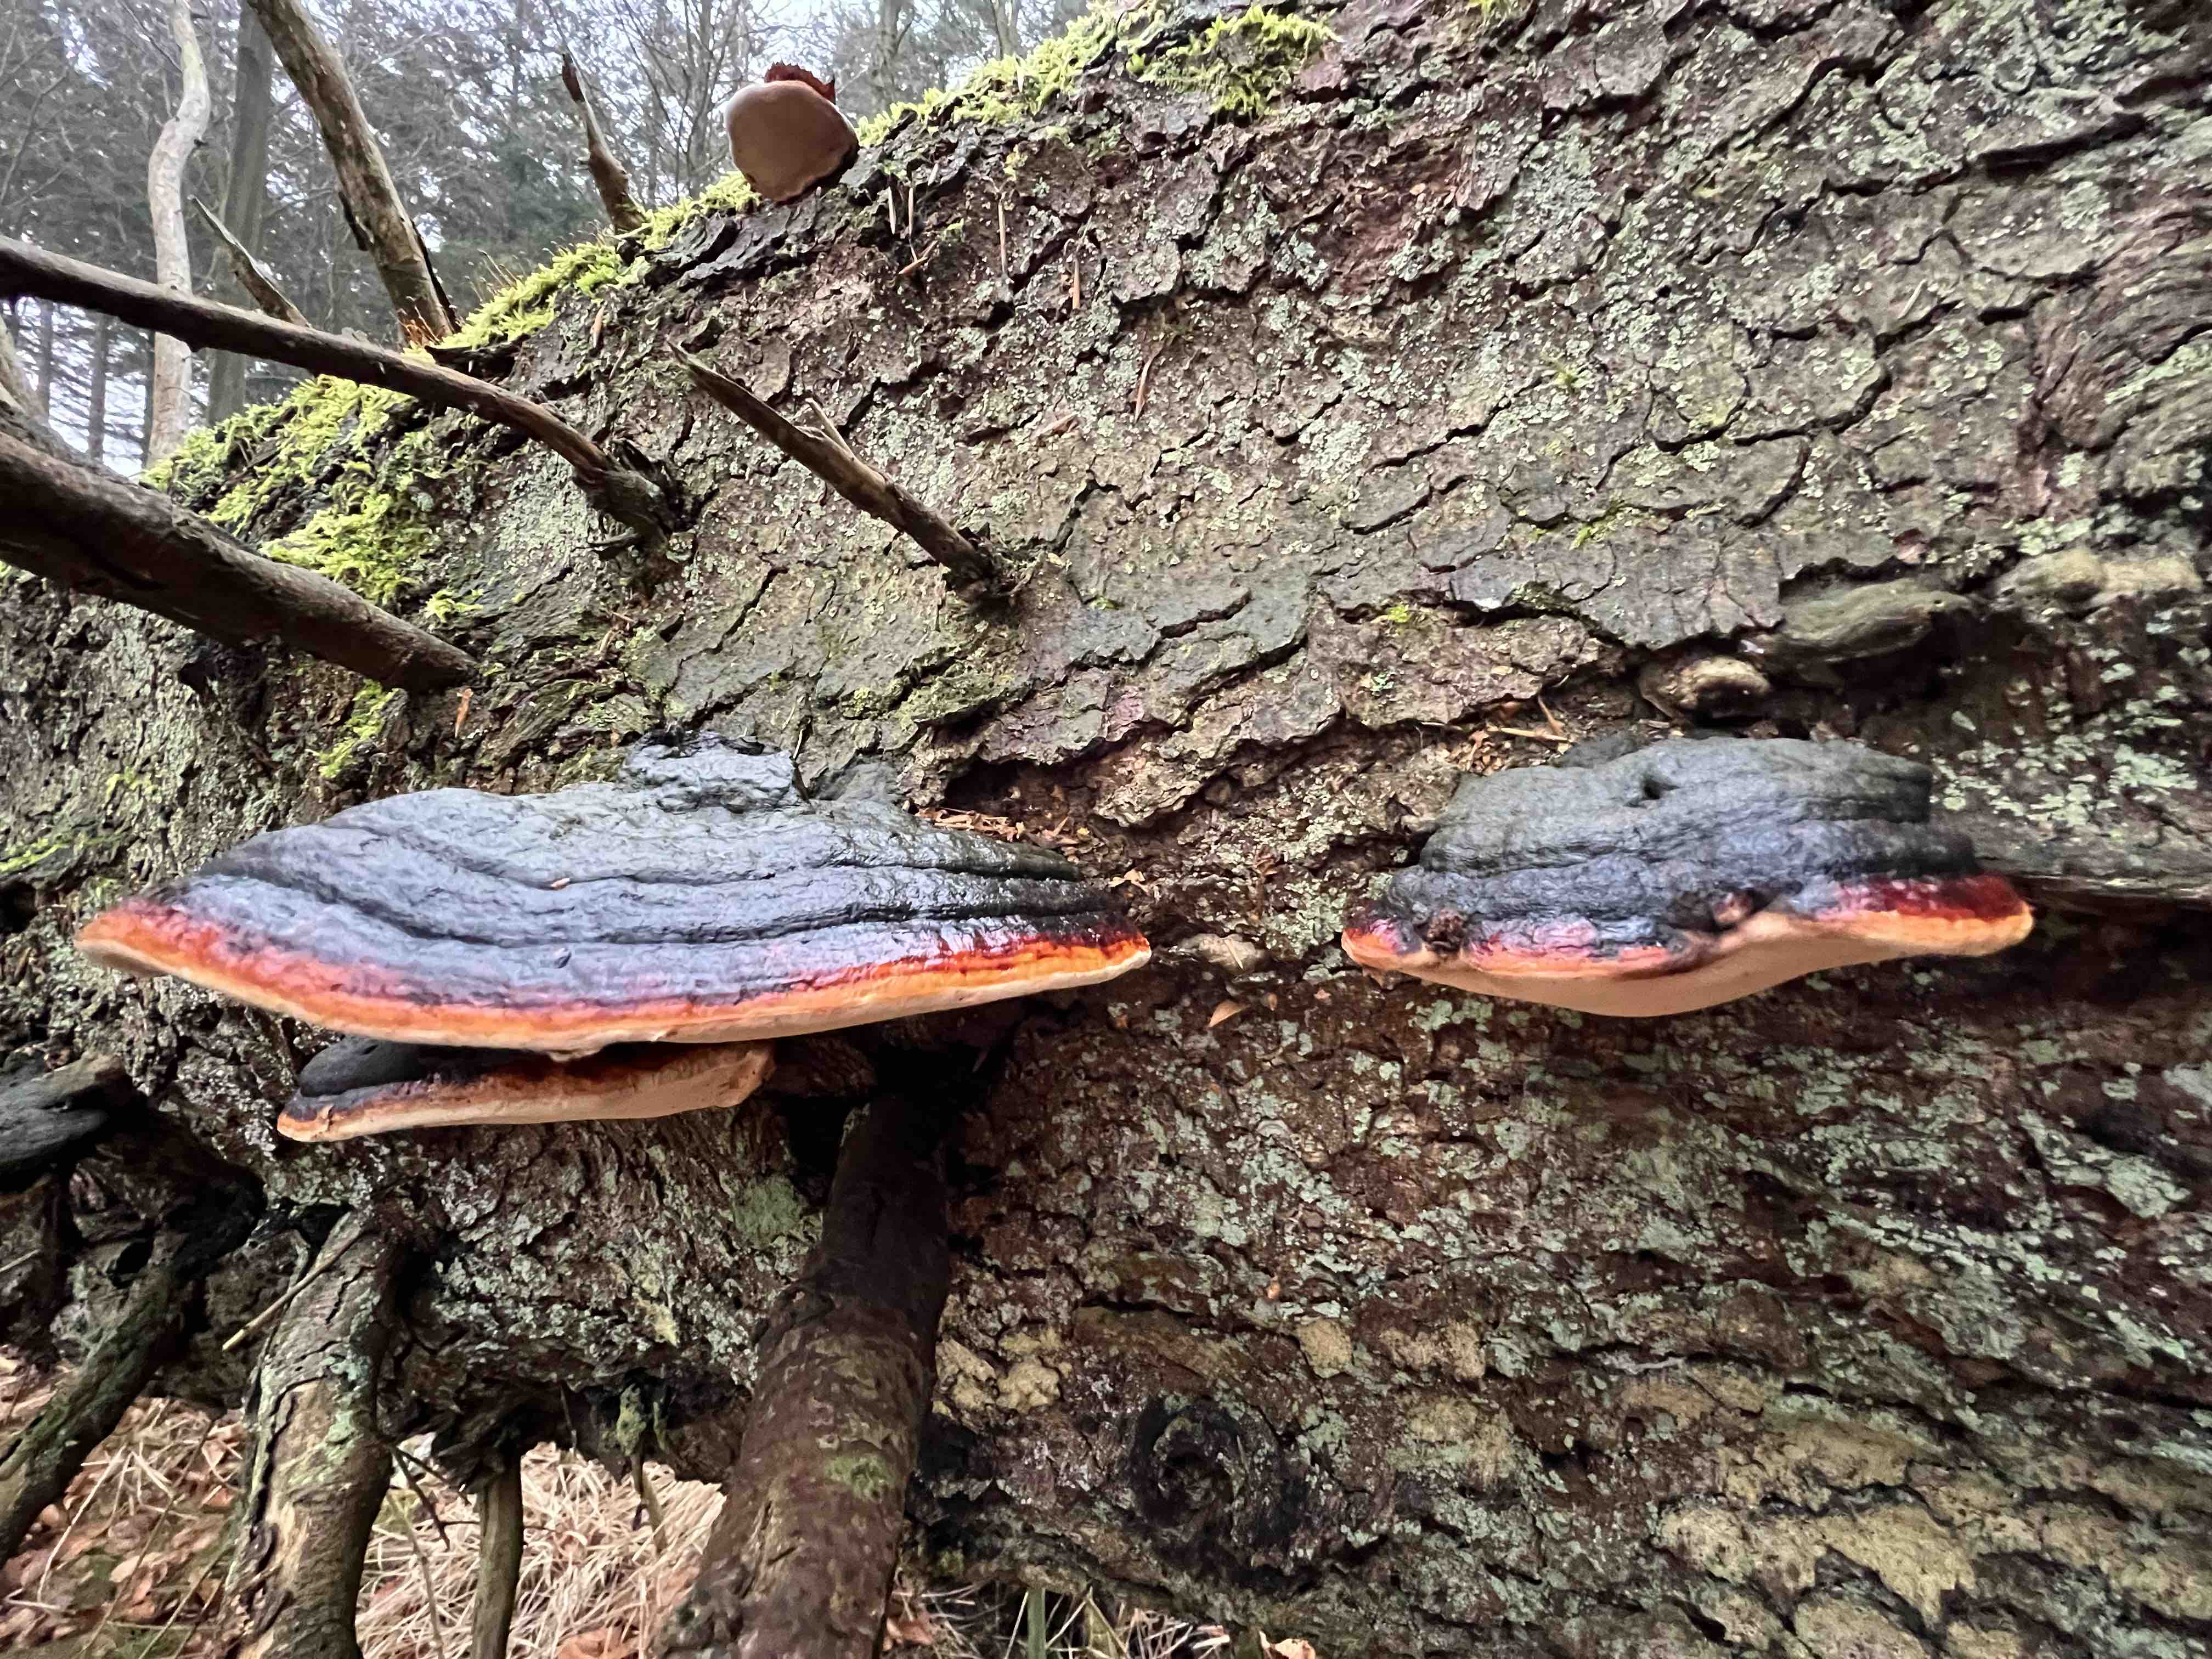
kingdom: Fungi
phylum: Basidiomycota
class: Agaricomycetes
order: Polyporales
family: Fomitopsidaceae
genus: Fomitopsis
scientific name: Fomitopsis pinicola
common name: randbæltet hovporesvamp
